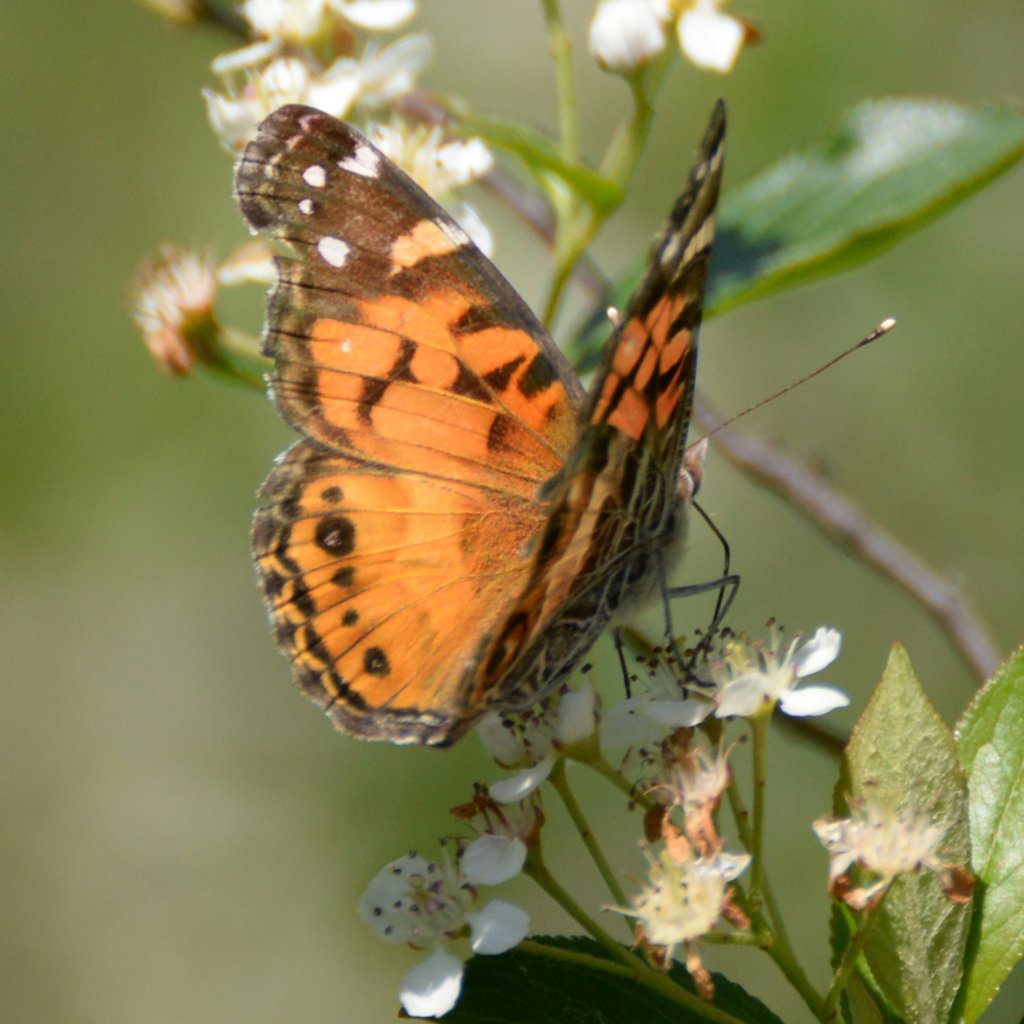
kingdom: Animalia
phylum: Arthropoda
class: Insecta
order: Lepidoptera
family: Nymphalidae
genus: Vanessa
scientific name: Vanessa virginiensis
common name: American Lady
